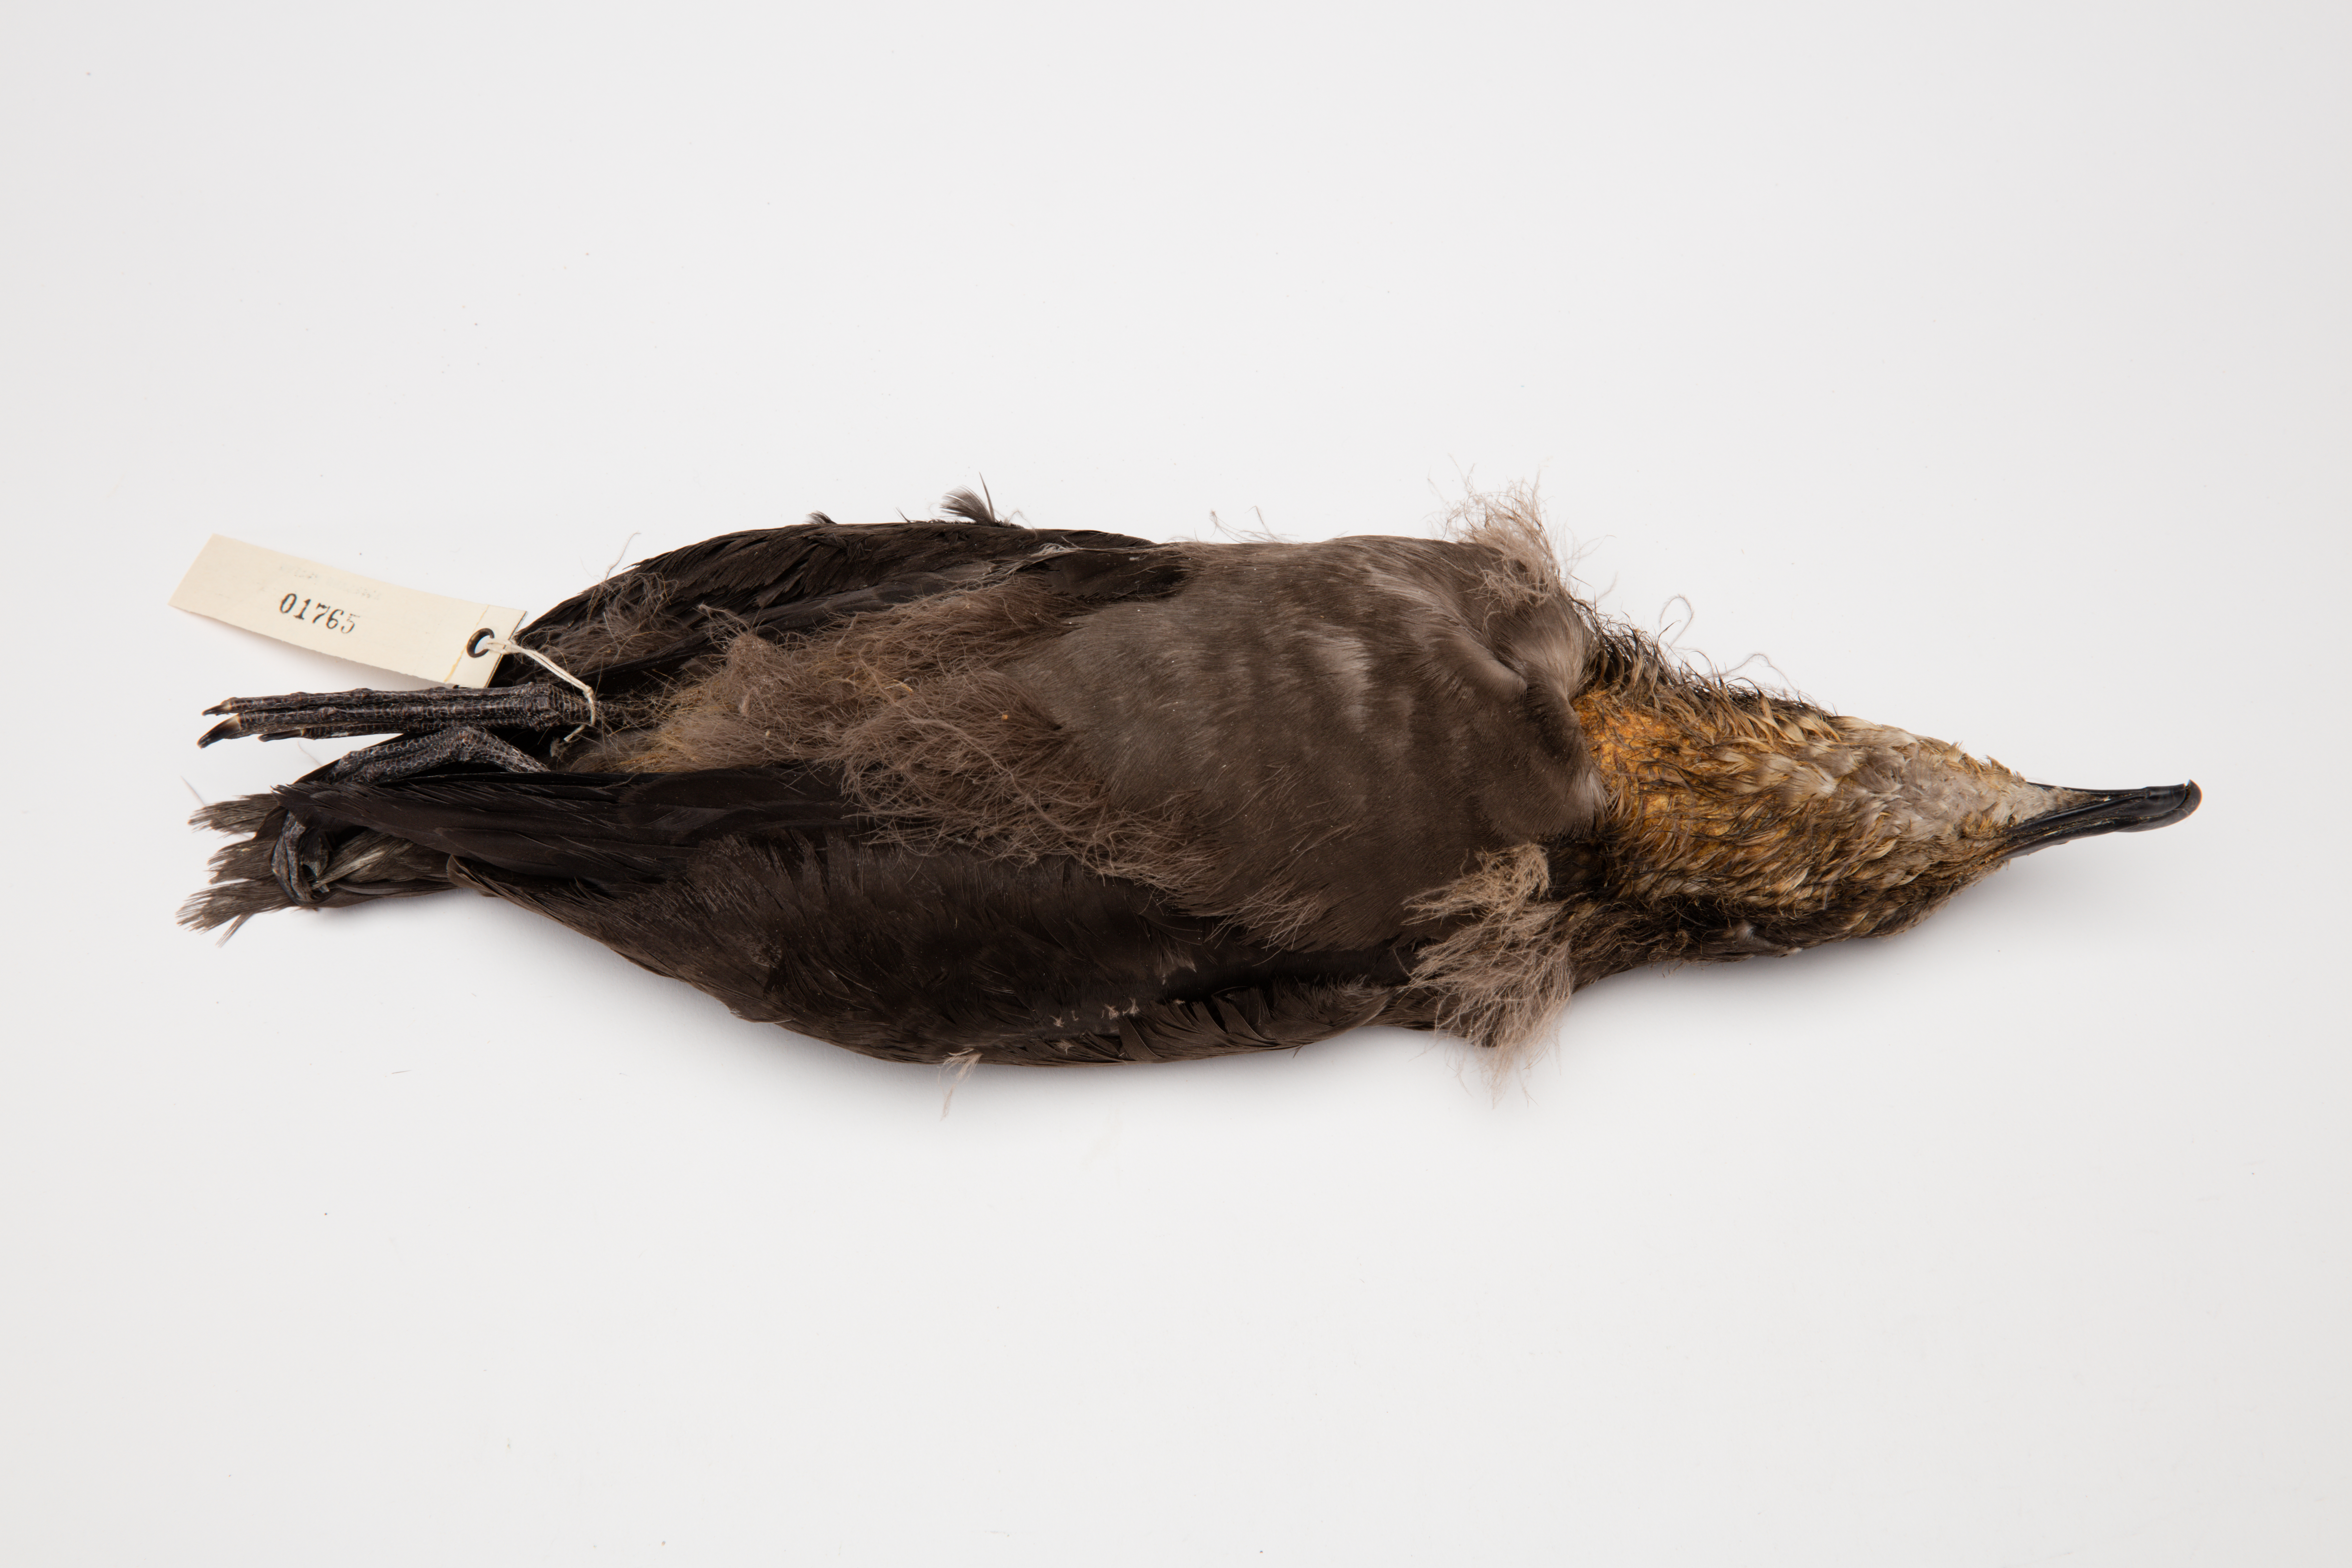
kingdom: Animalia
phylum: Chordata
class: Aves
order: Procellariiformes
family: Procellariidae
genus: Pterodroma
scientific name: Pterodroma macroptera
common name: Great-winged petrel
